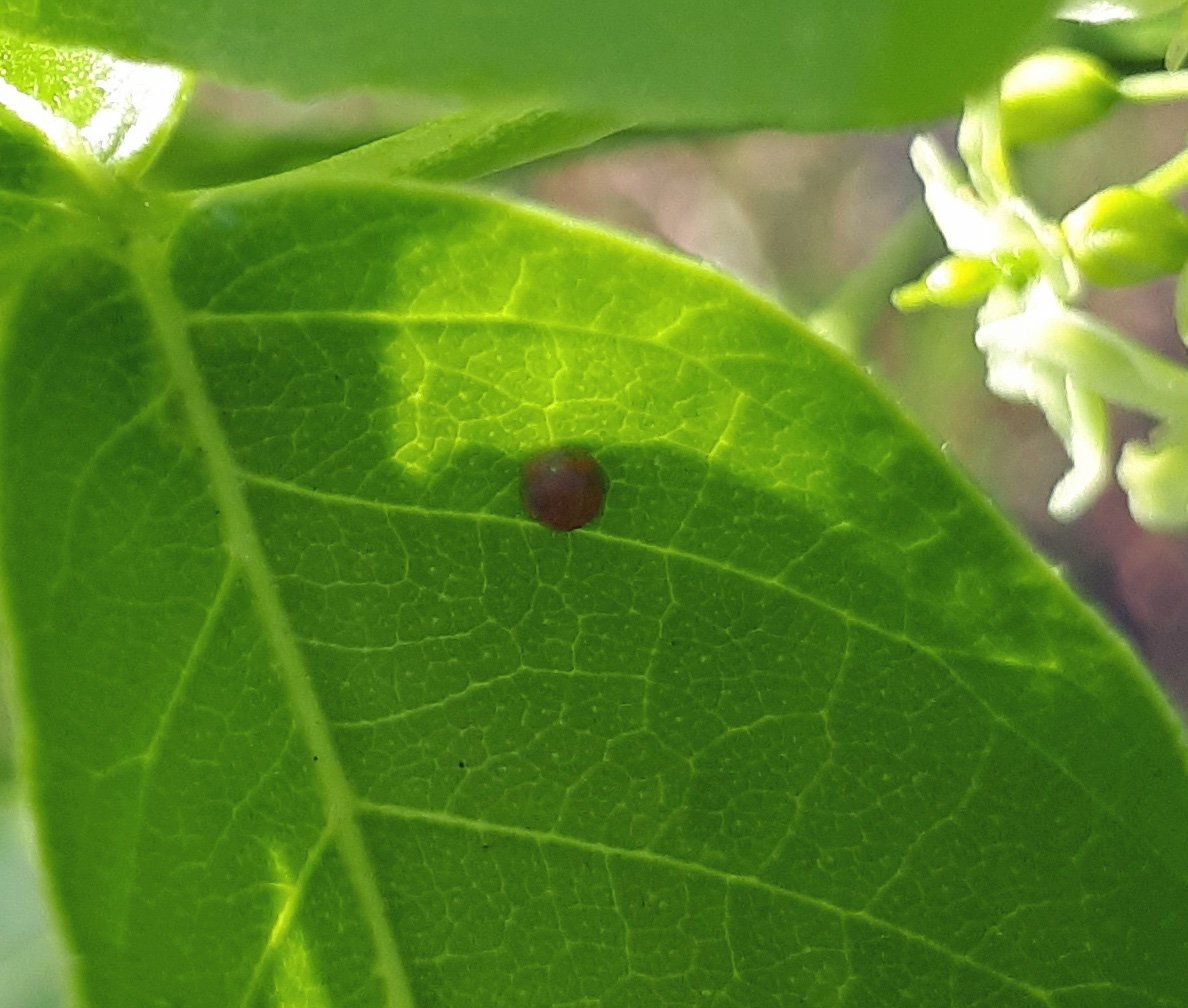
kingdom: Animalia
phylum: Arthropoda
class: Insecta
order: Lepidoptera
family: Papilionidae
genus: Papilio
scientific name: Papilio cresphontes
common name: Eastern Giant Swallowtail
